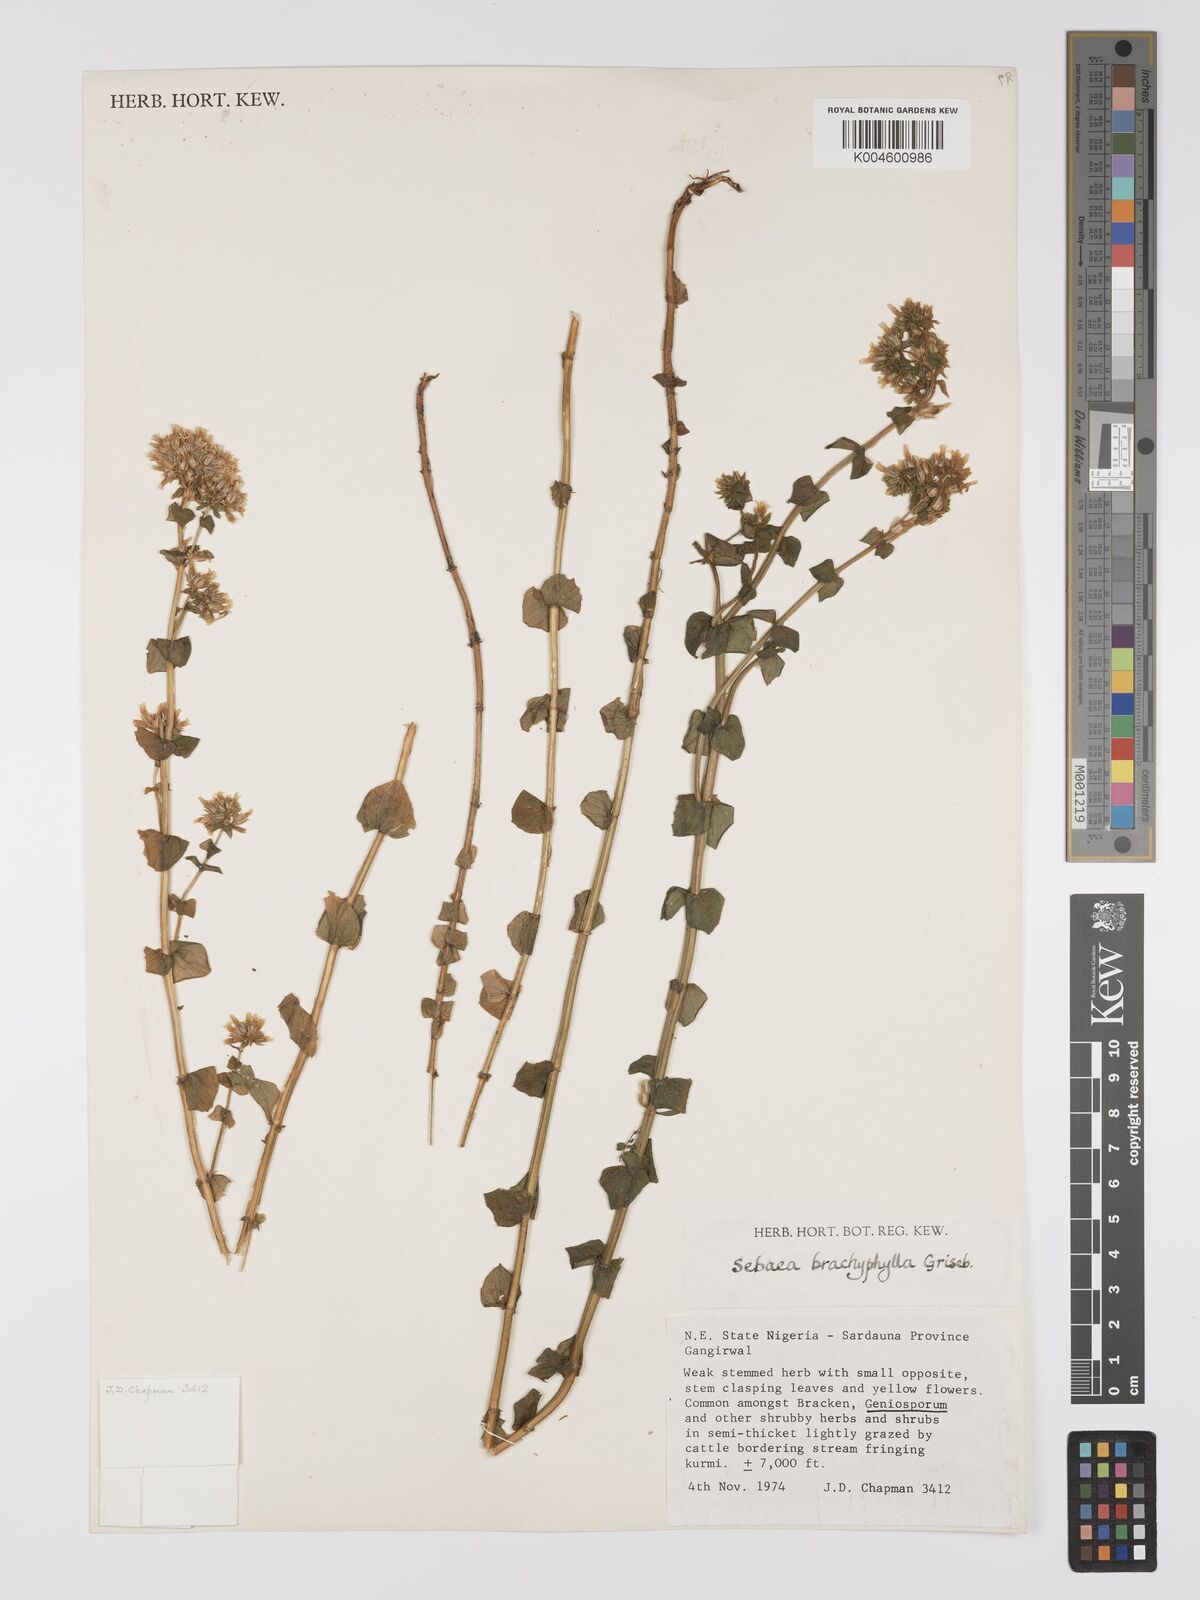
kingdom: Plantae
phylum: Tracheophyta
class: Magnoliopsida
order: Gentianales
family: Gentianaceae
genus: Sebaea
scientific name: Sebaea brachyphylla
